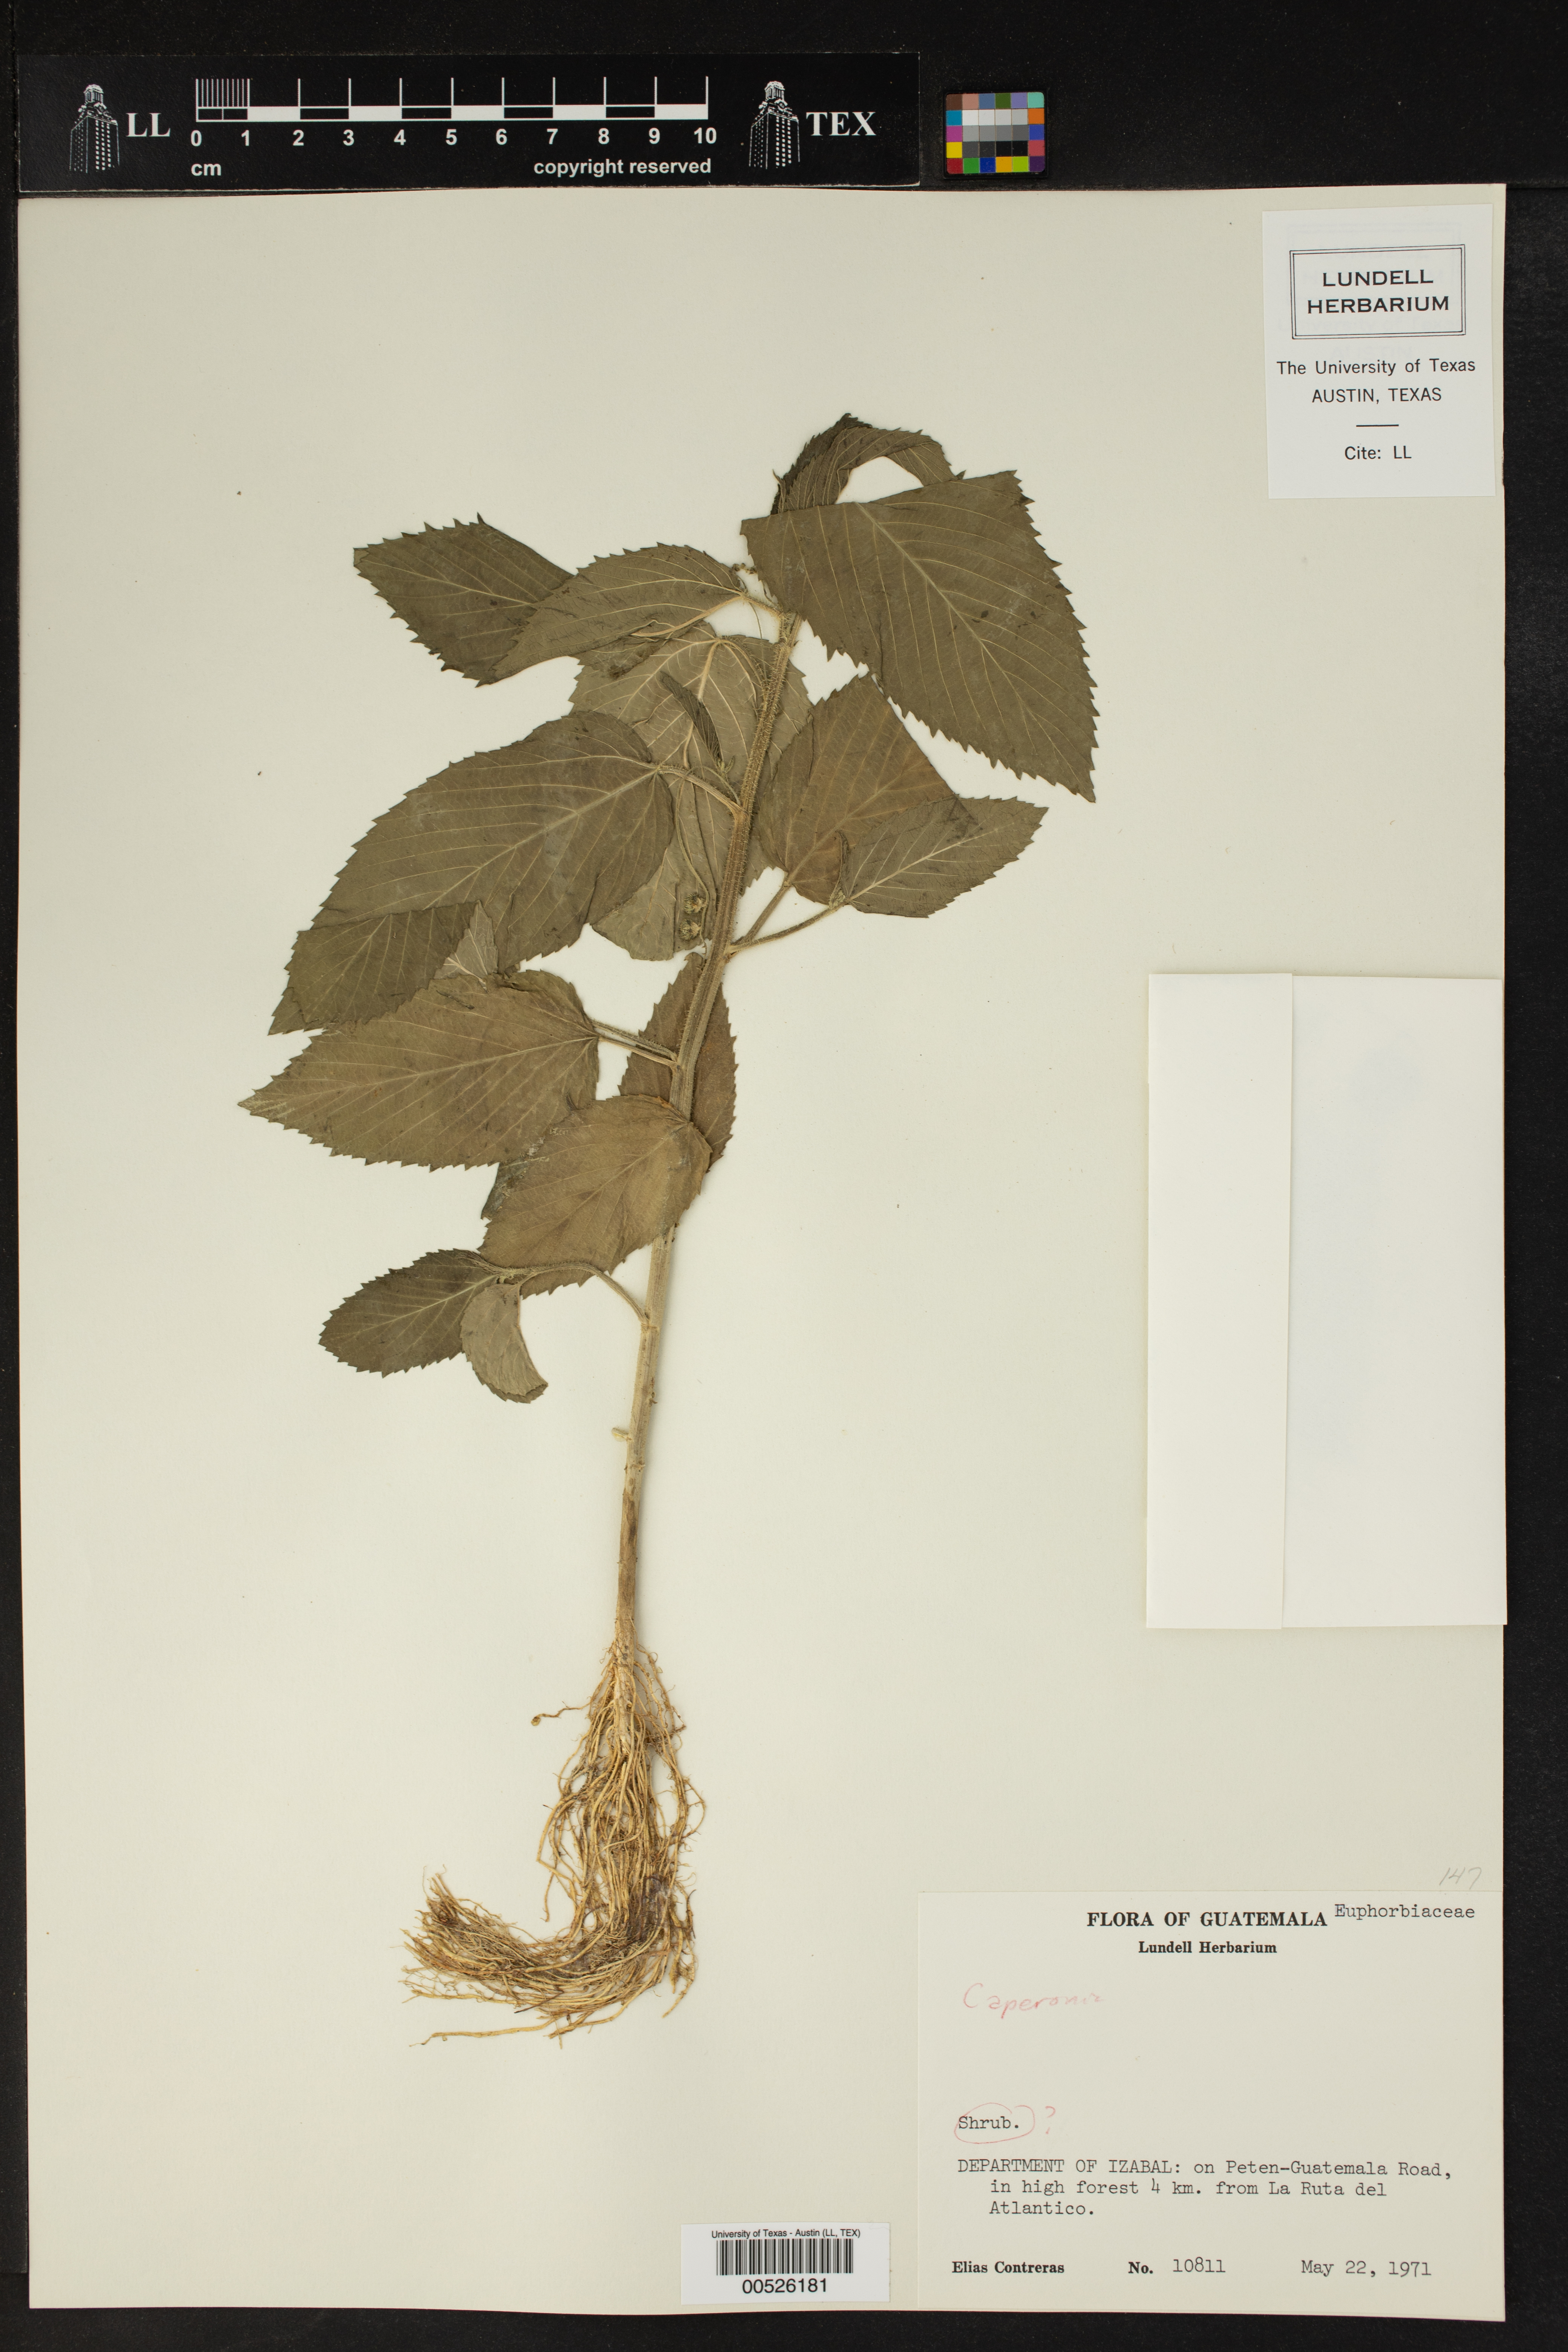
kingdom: Plantae
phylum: Tracheophyta
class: Magnoliopsida
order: Malpighiales
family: Euphorbiaceae
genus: Caperonia
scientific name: Caperonia
